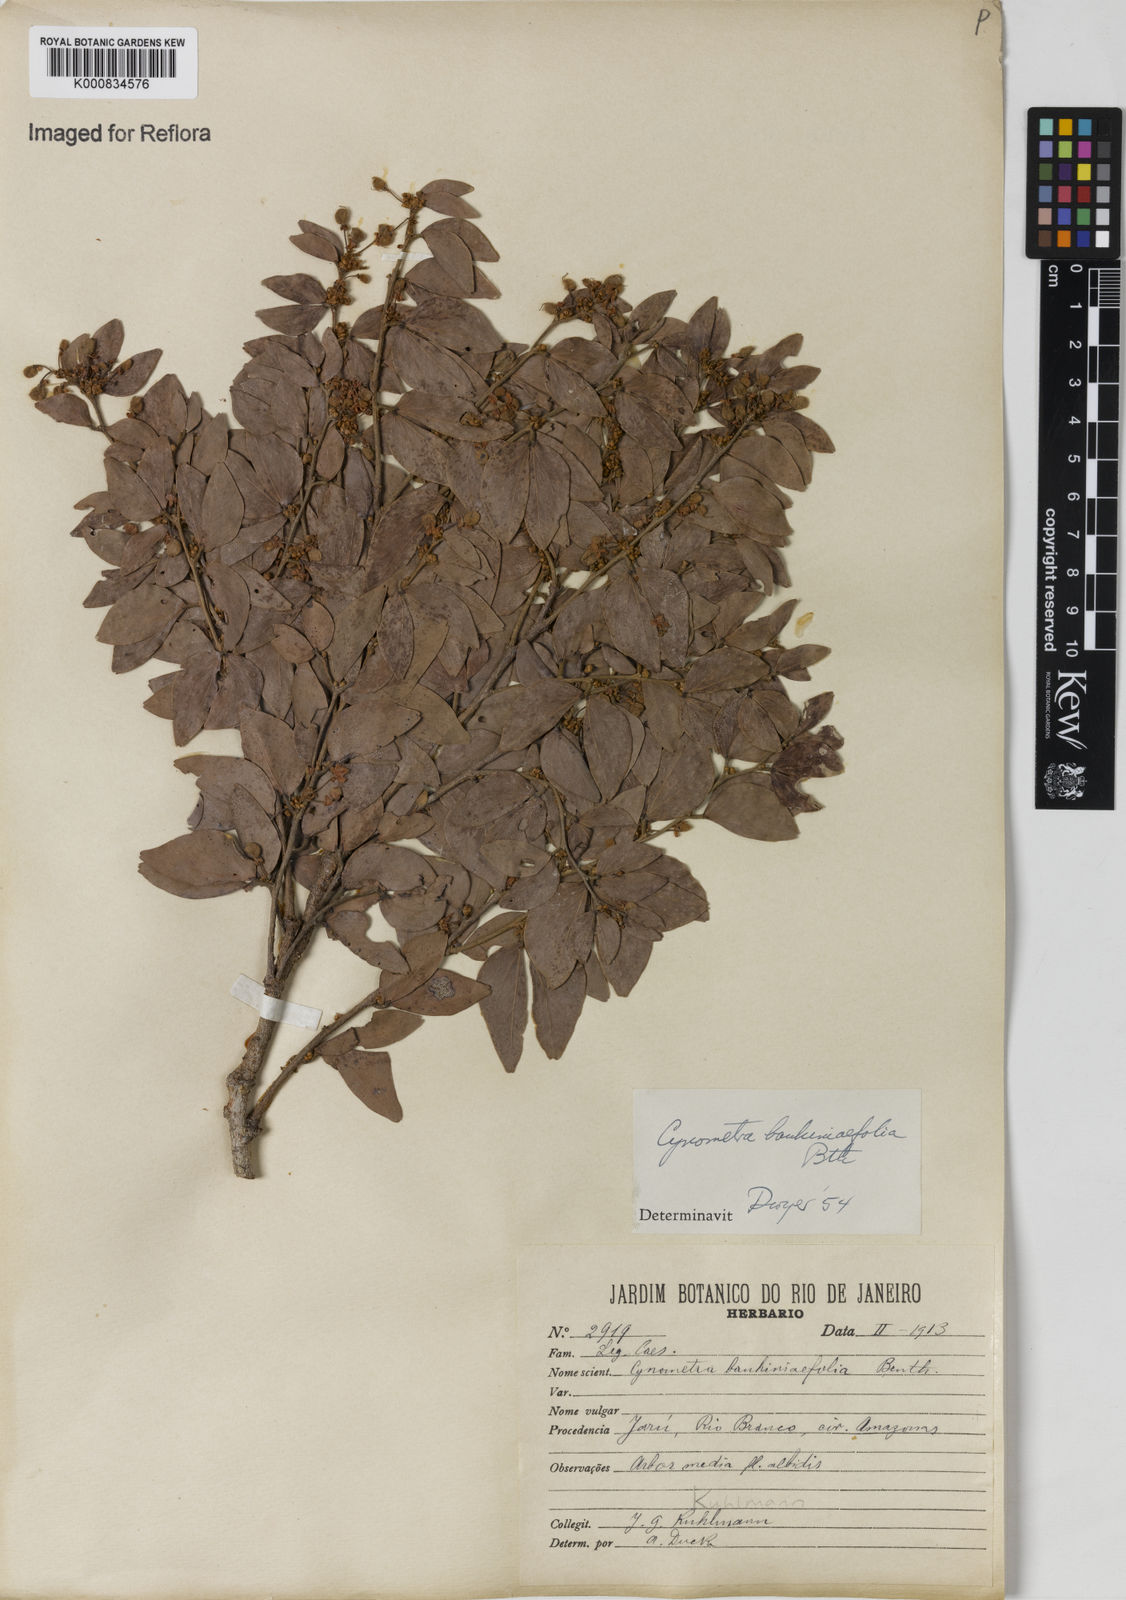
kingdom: Plantae
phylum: Tracheophyta
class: Magnoliopsida
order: Fabales
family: Fabaceae
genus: Cynometra
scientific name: Cynometra bauhiniifolia
